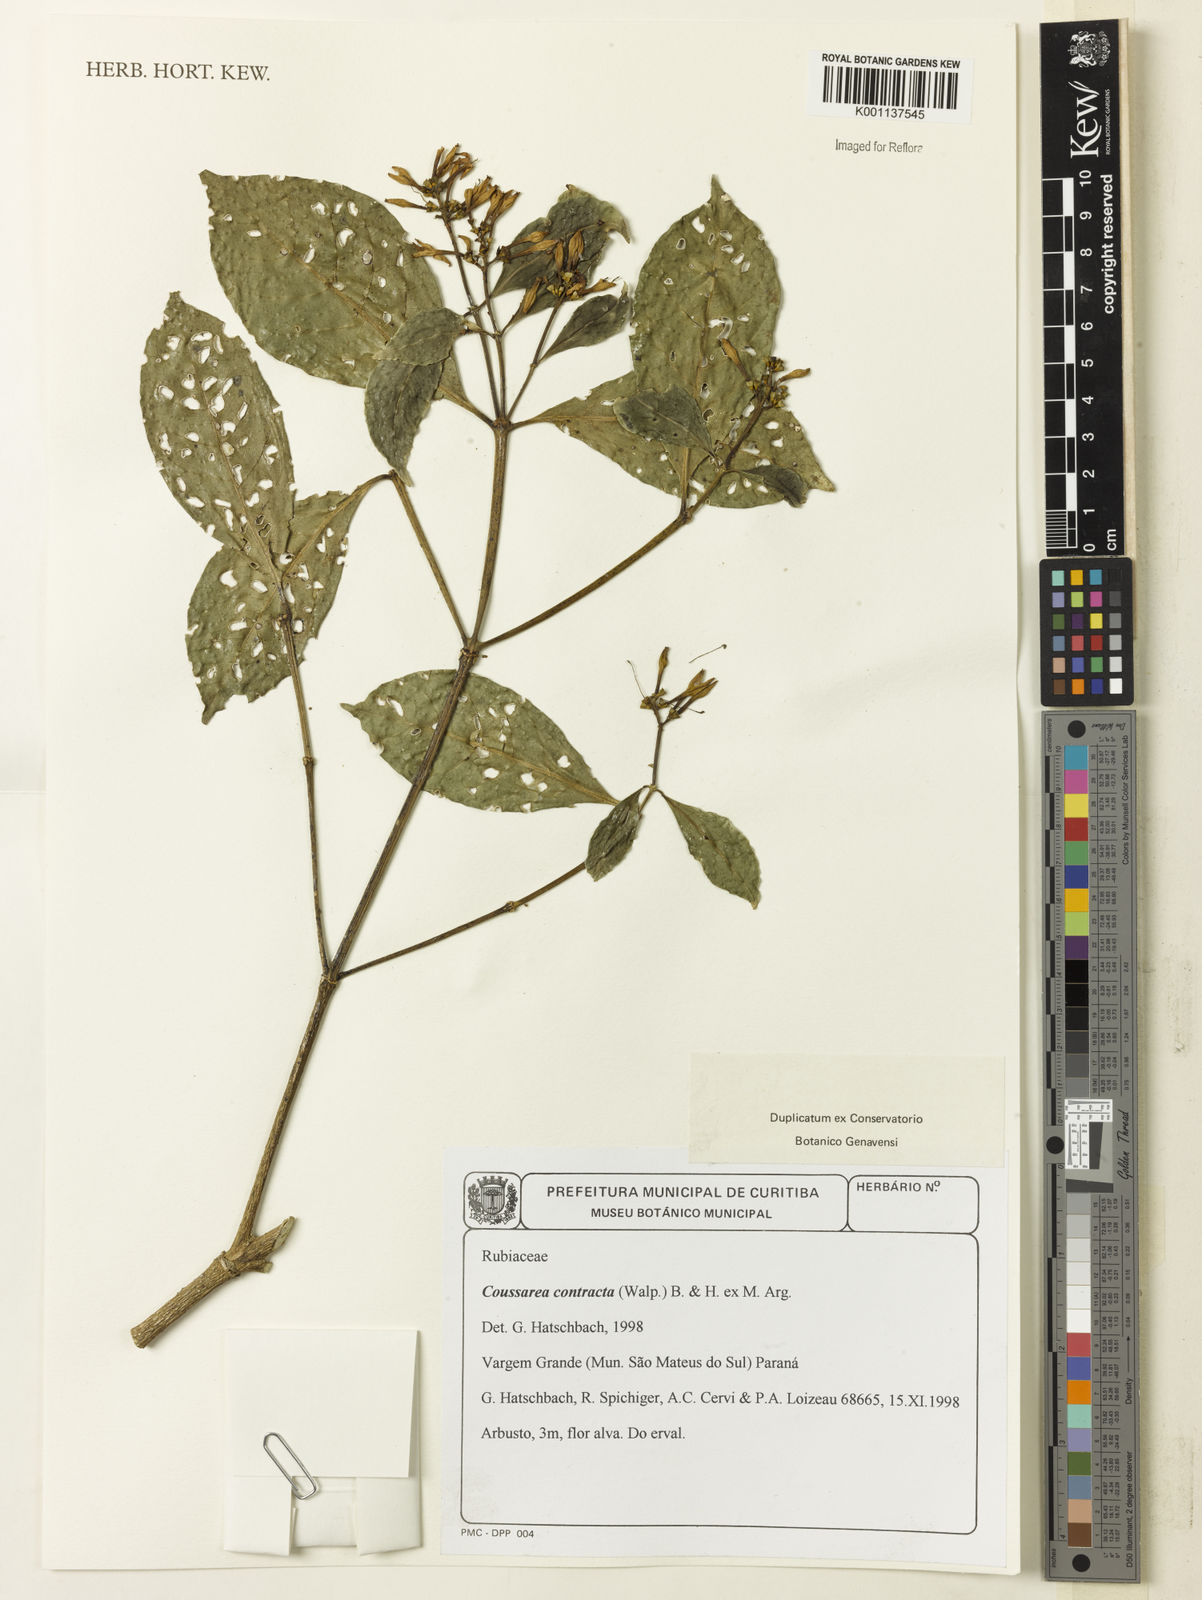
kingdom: Plantae
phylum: Tracheophyta
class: Magnoliopsida
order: Gentianales
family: Rubiaceae
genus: Coussarea
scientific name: Coussarea
